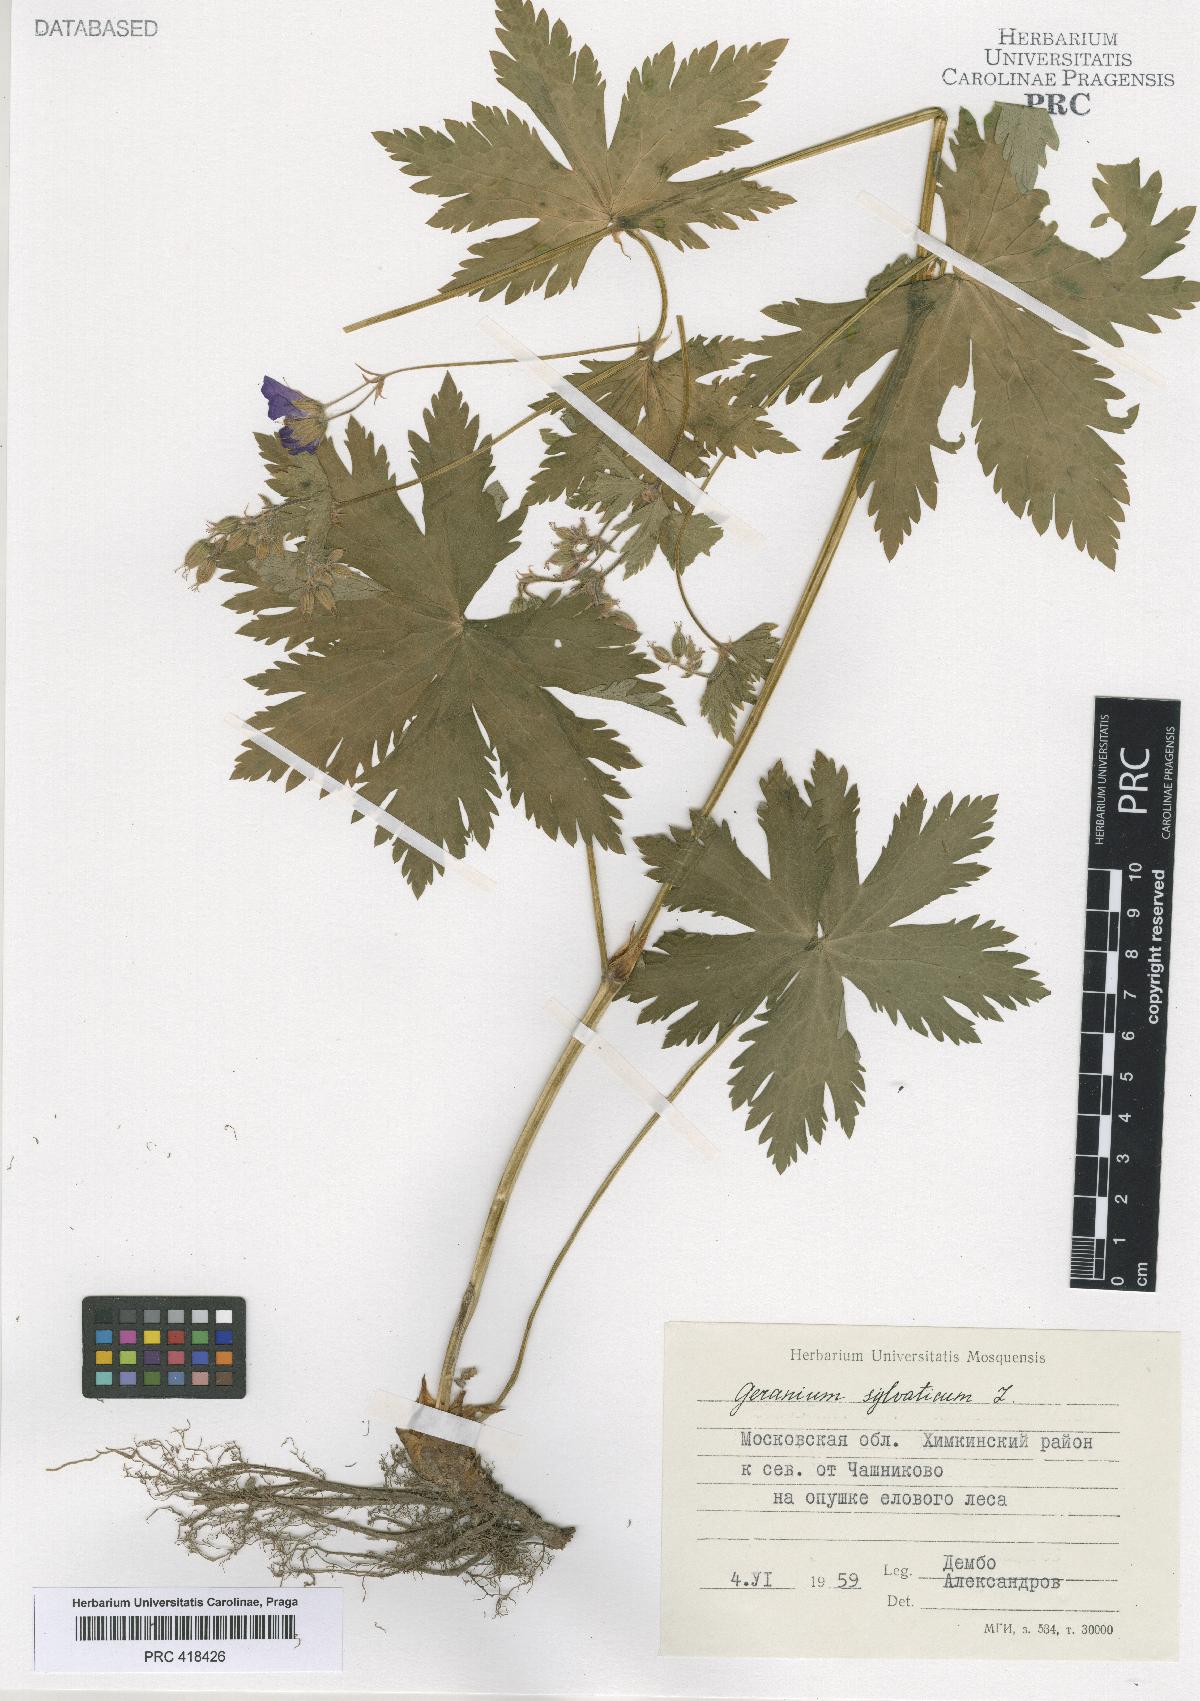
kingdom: Plantae
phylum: Tracheophyta
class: Magnoliopsida
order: Geraniales
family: Geraniaceae
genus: Geranium
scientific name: Geranium sylvaticum
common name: Wood crane's-bill
